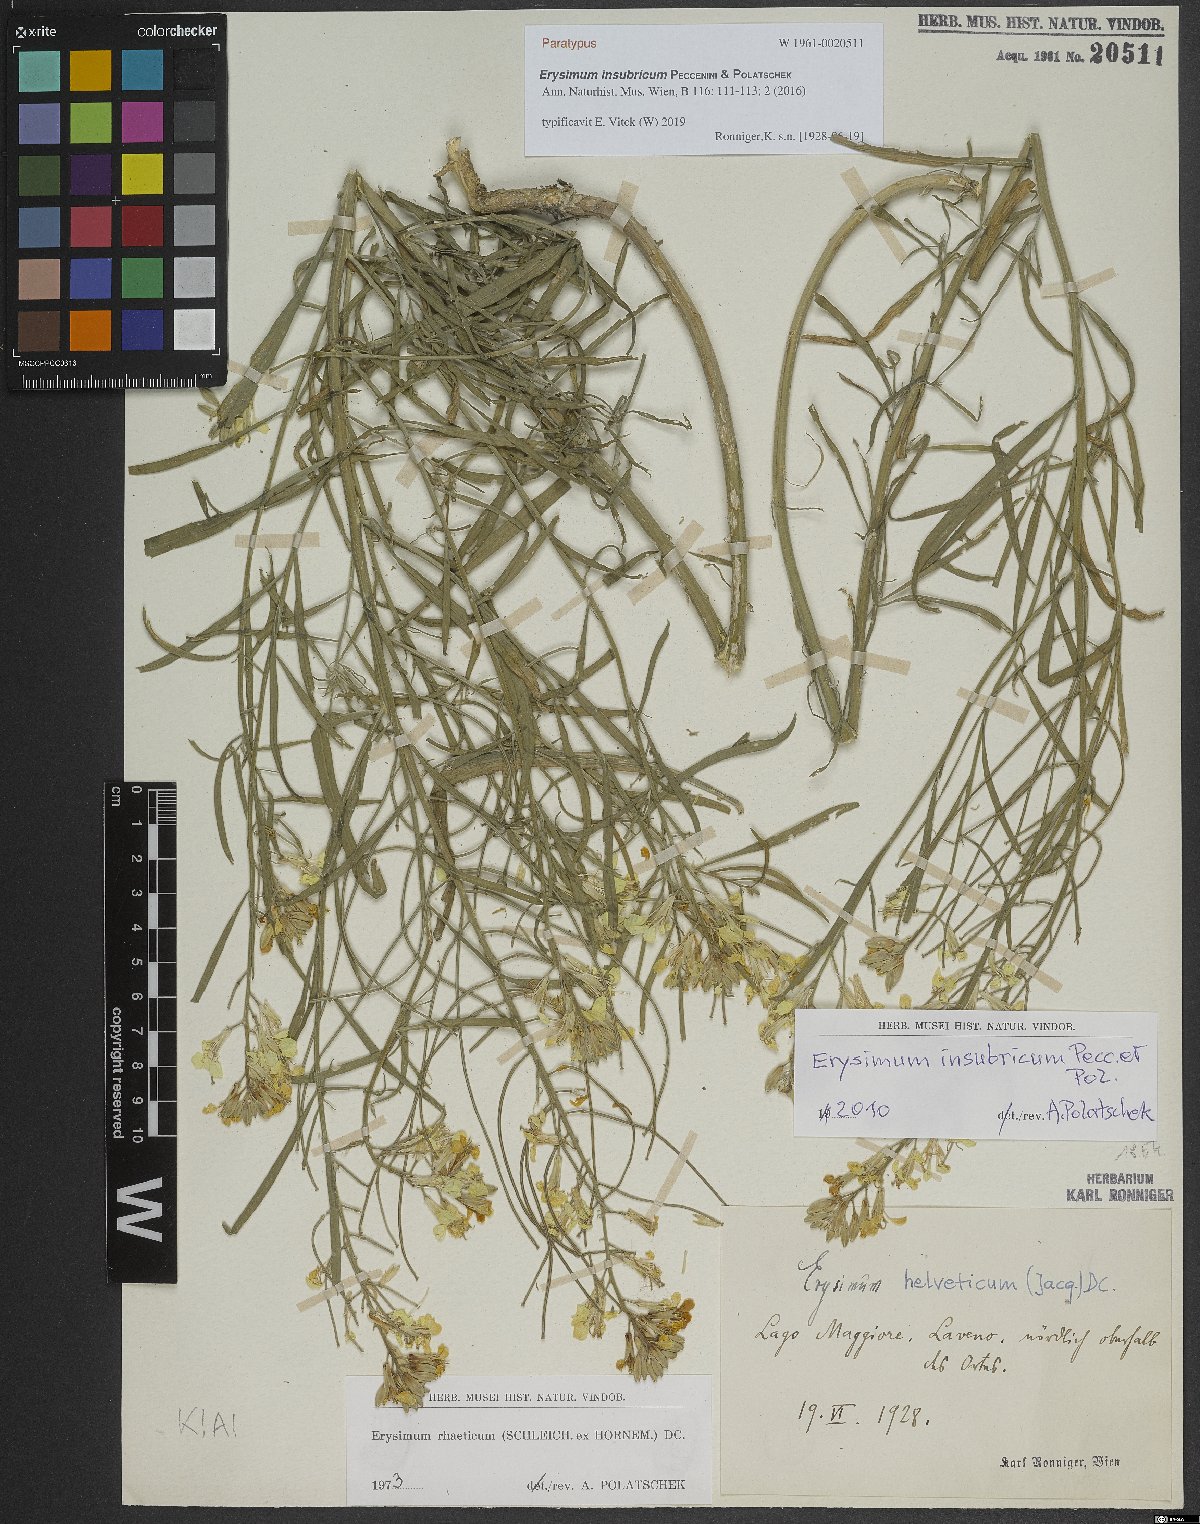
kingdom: Plantae
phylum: Tracheophyta
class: Magnoliopsida
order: Brassicales
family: Brassicaceae
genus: Erysimum
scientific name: Erysimum insubricum
